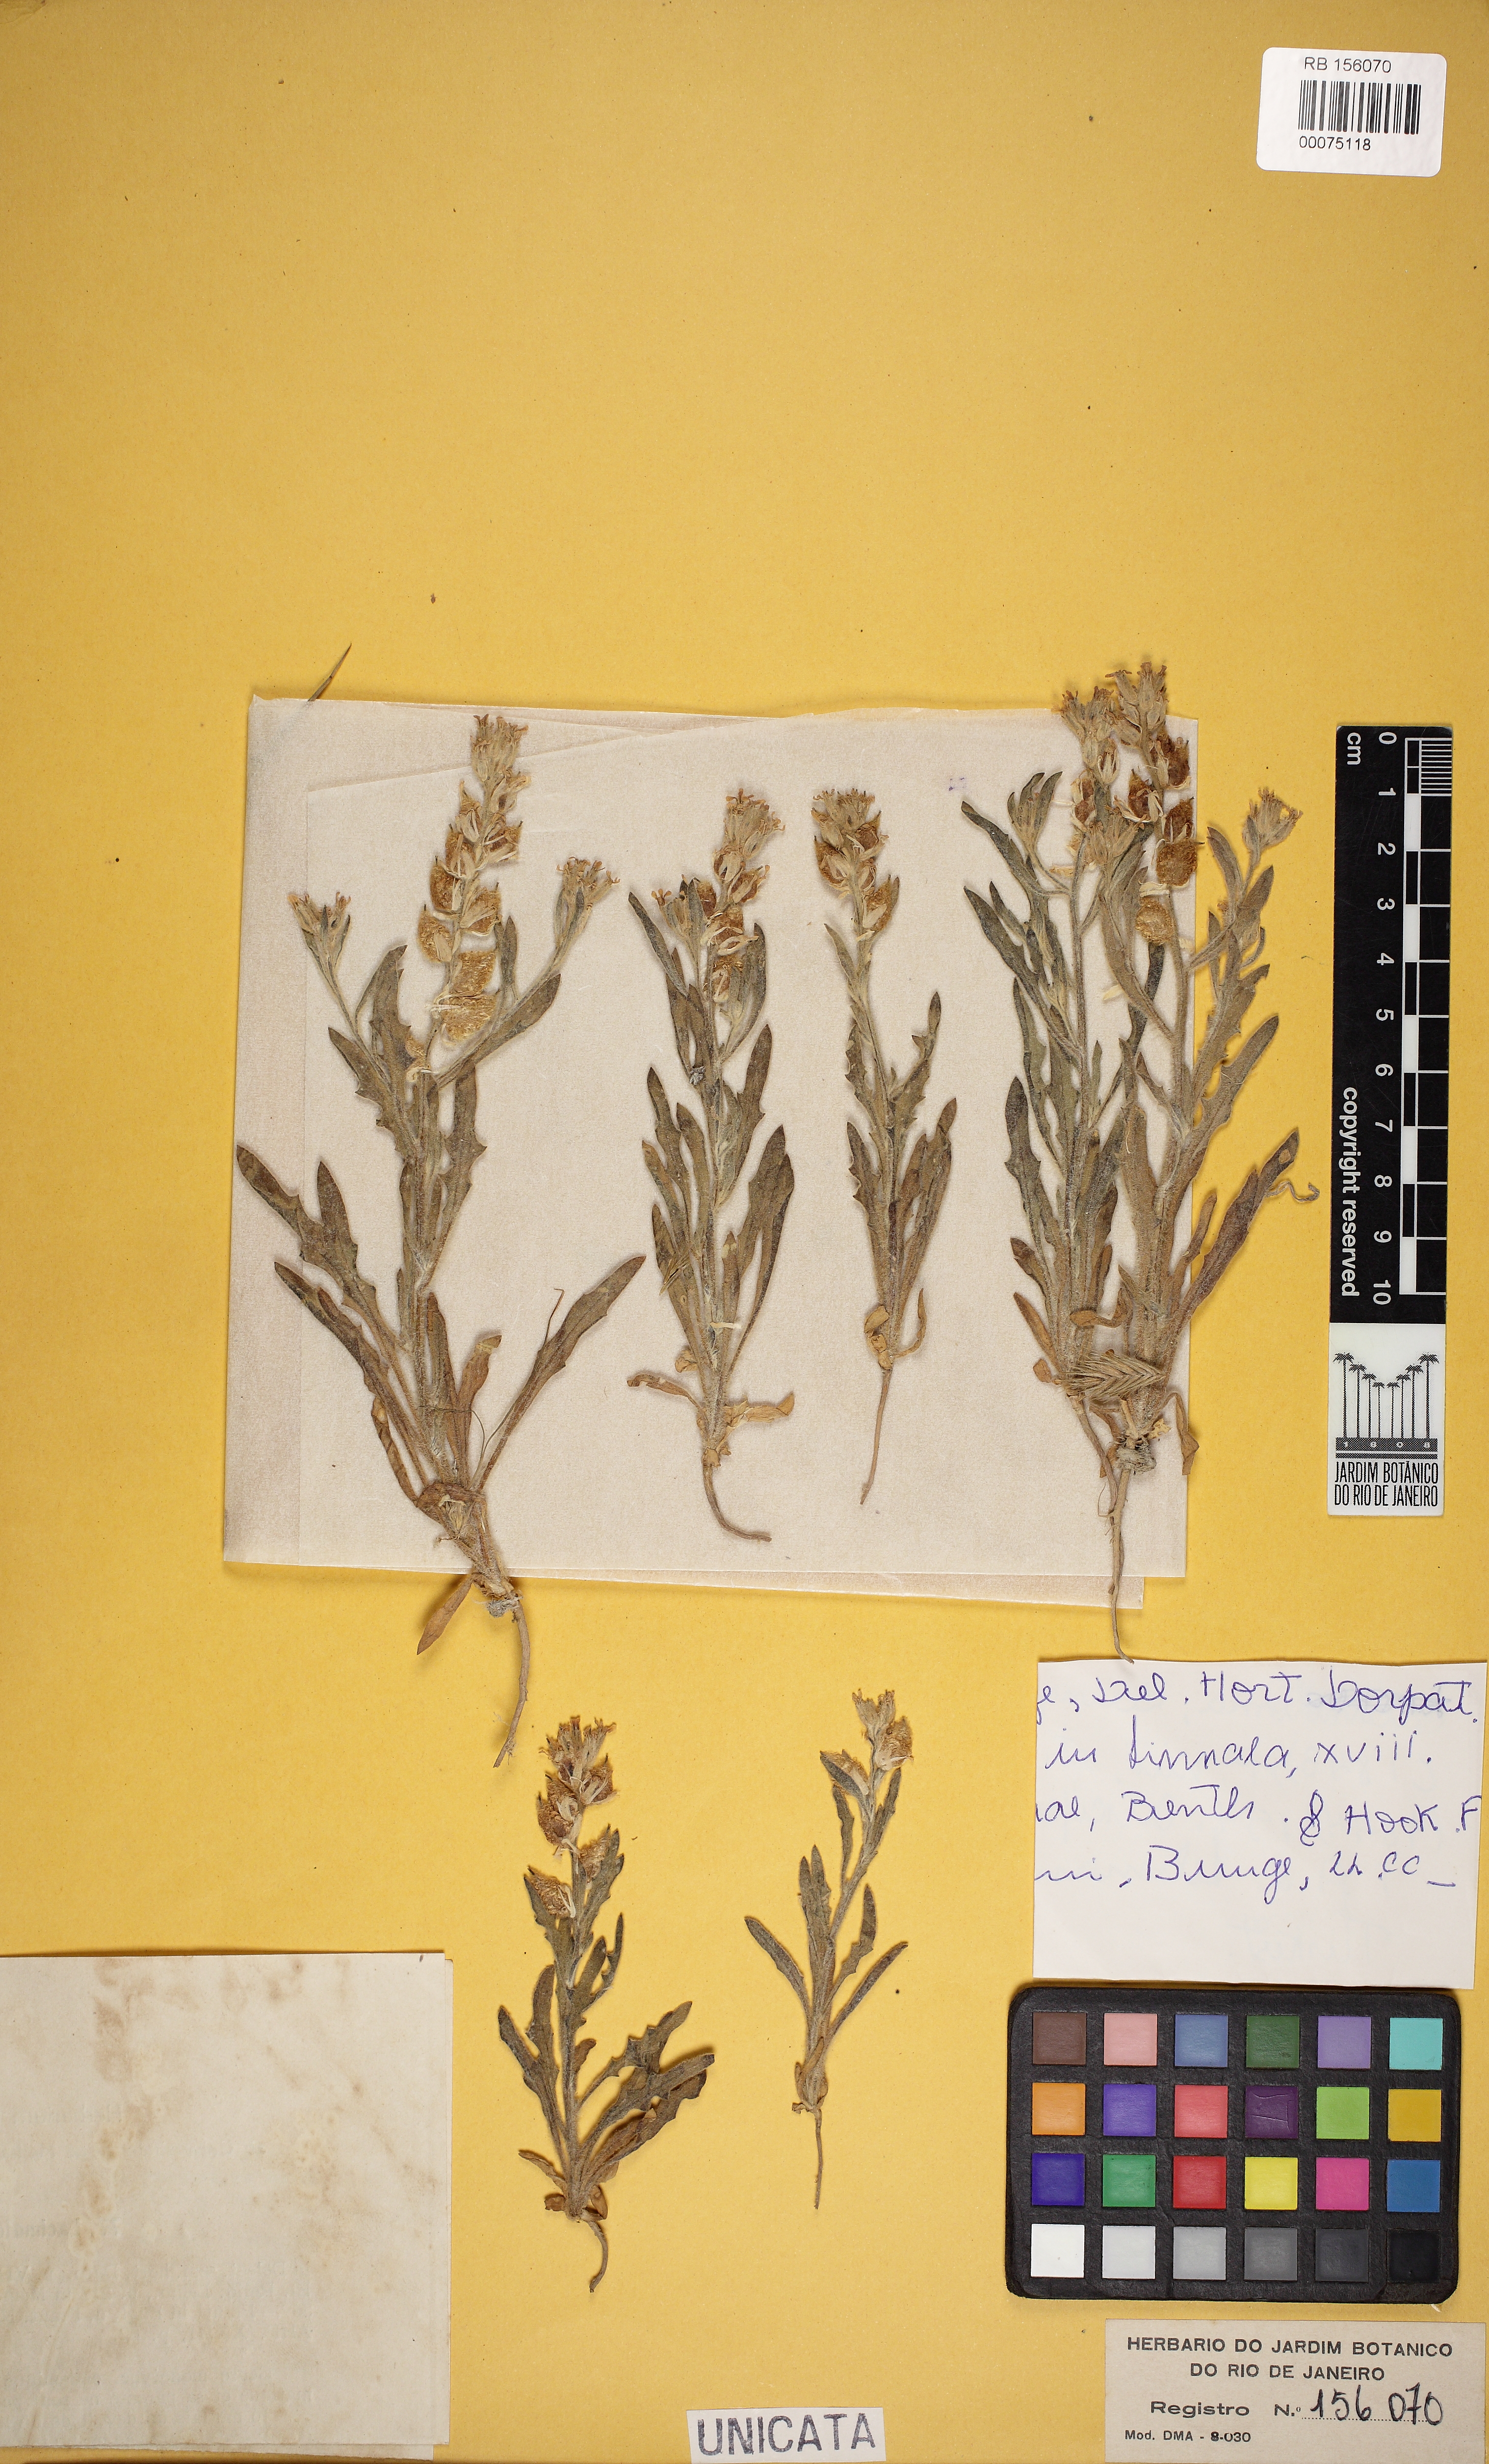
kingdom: Plantae
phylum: Tracheophyta
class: Magnoliopsida
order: Brassicales
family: Brassicaceae
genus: Lachnoloma
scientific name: Lachnoloma lehmannii
